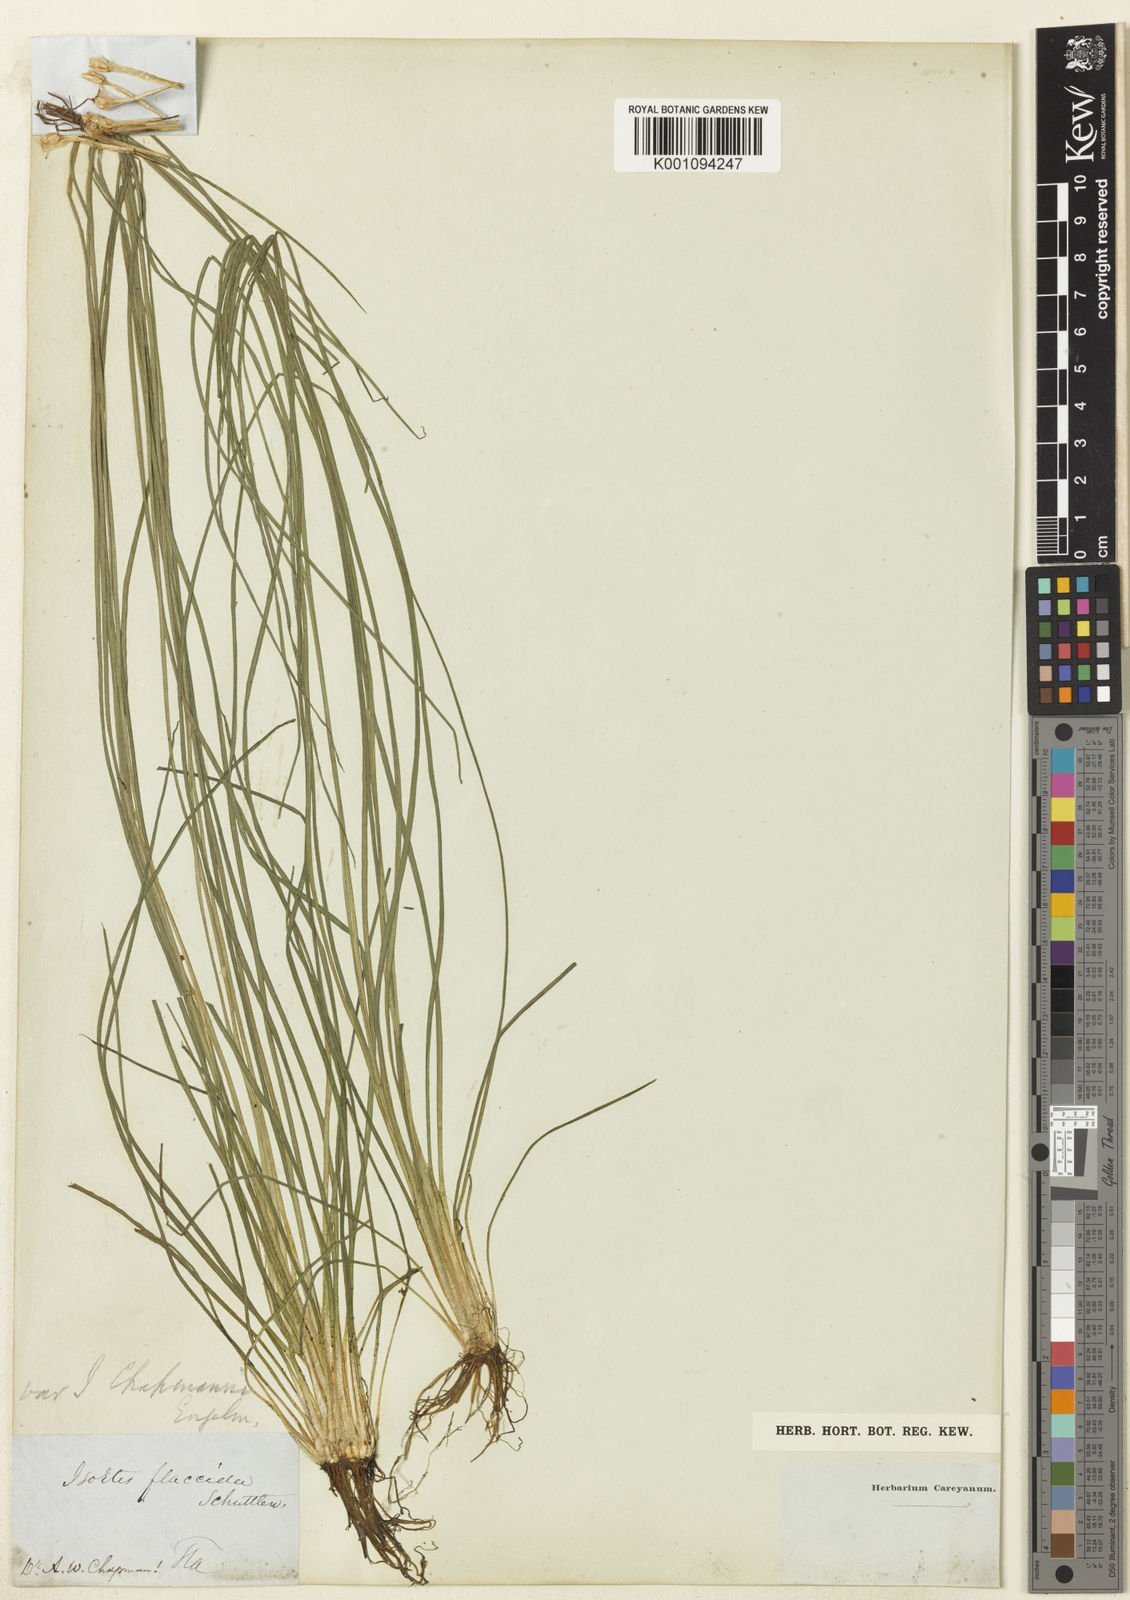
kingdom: Plantae
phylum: Tracheophyta
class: Lycopodiopsida
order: Isoetales
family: Isoetaceae
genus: Isoetes
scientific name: Isoetes flaccida
